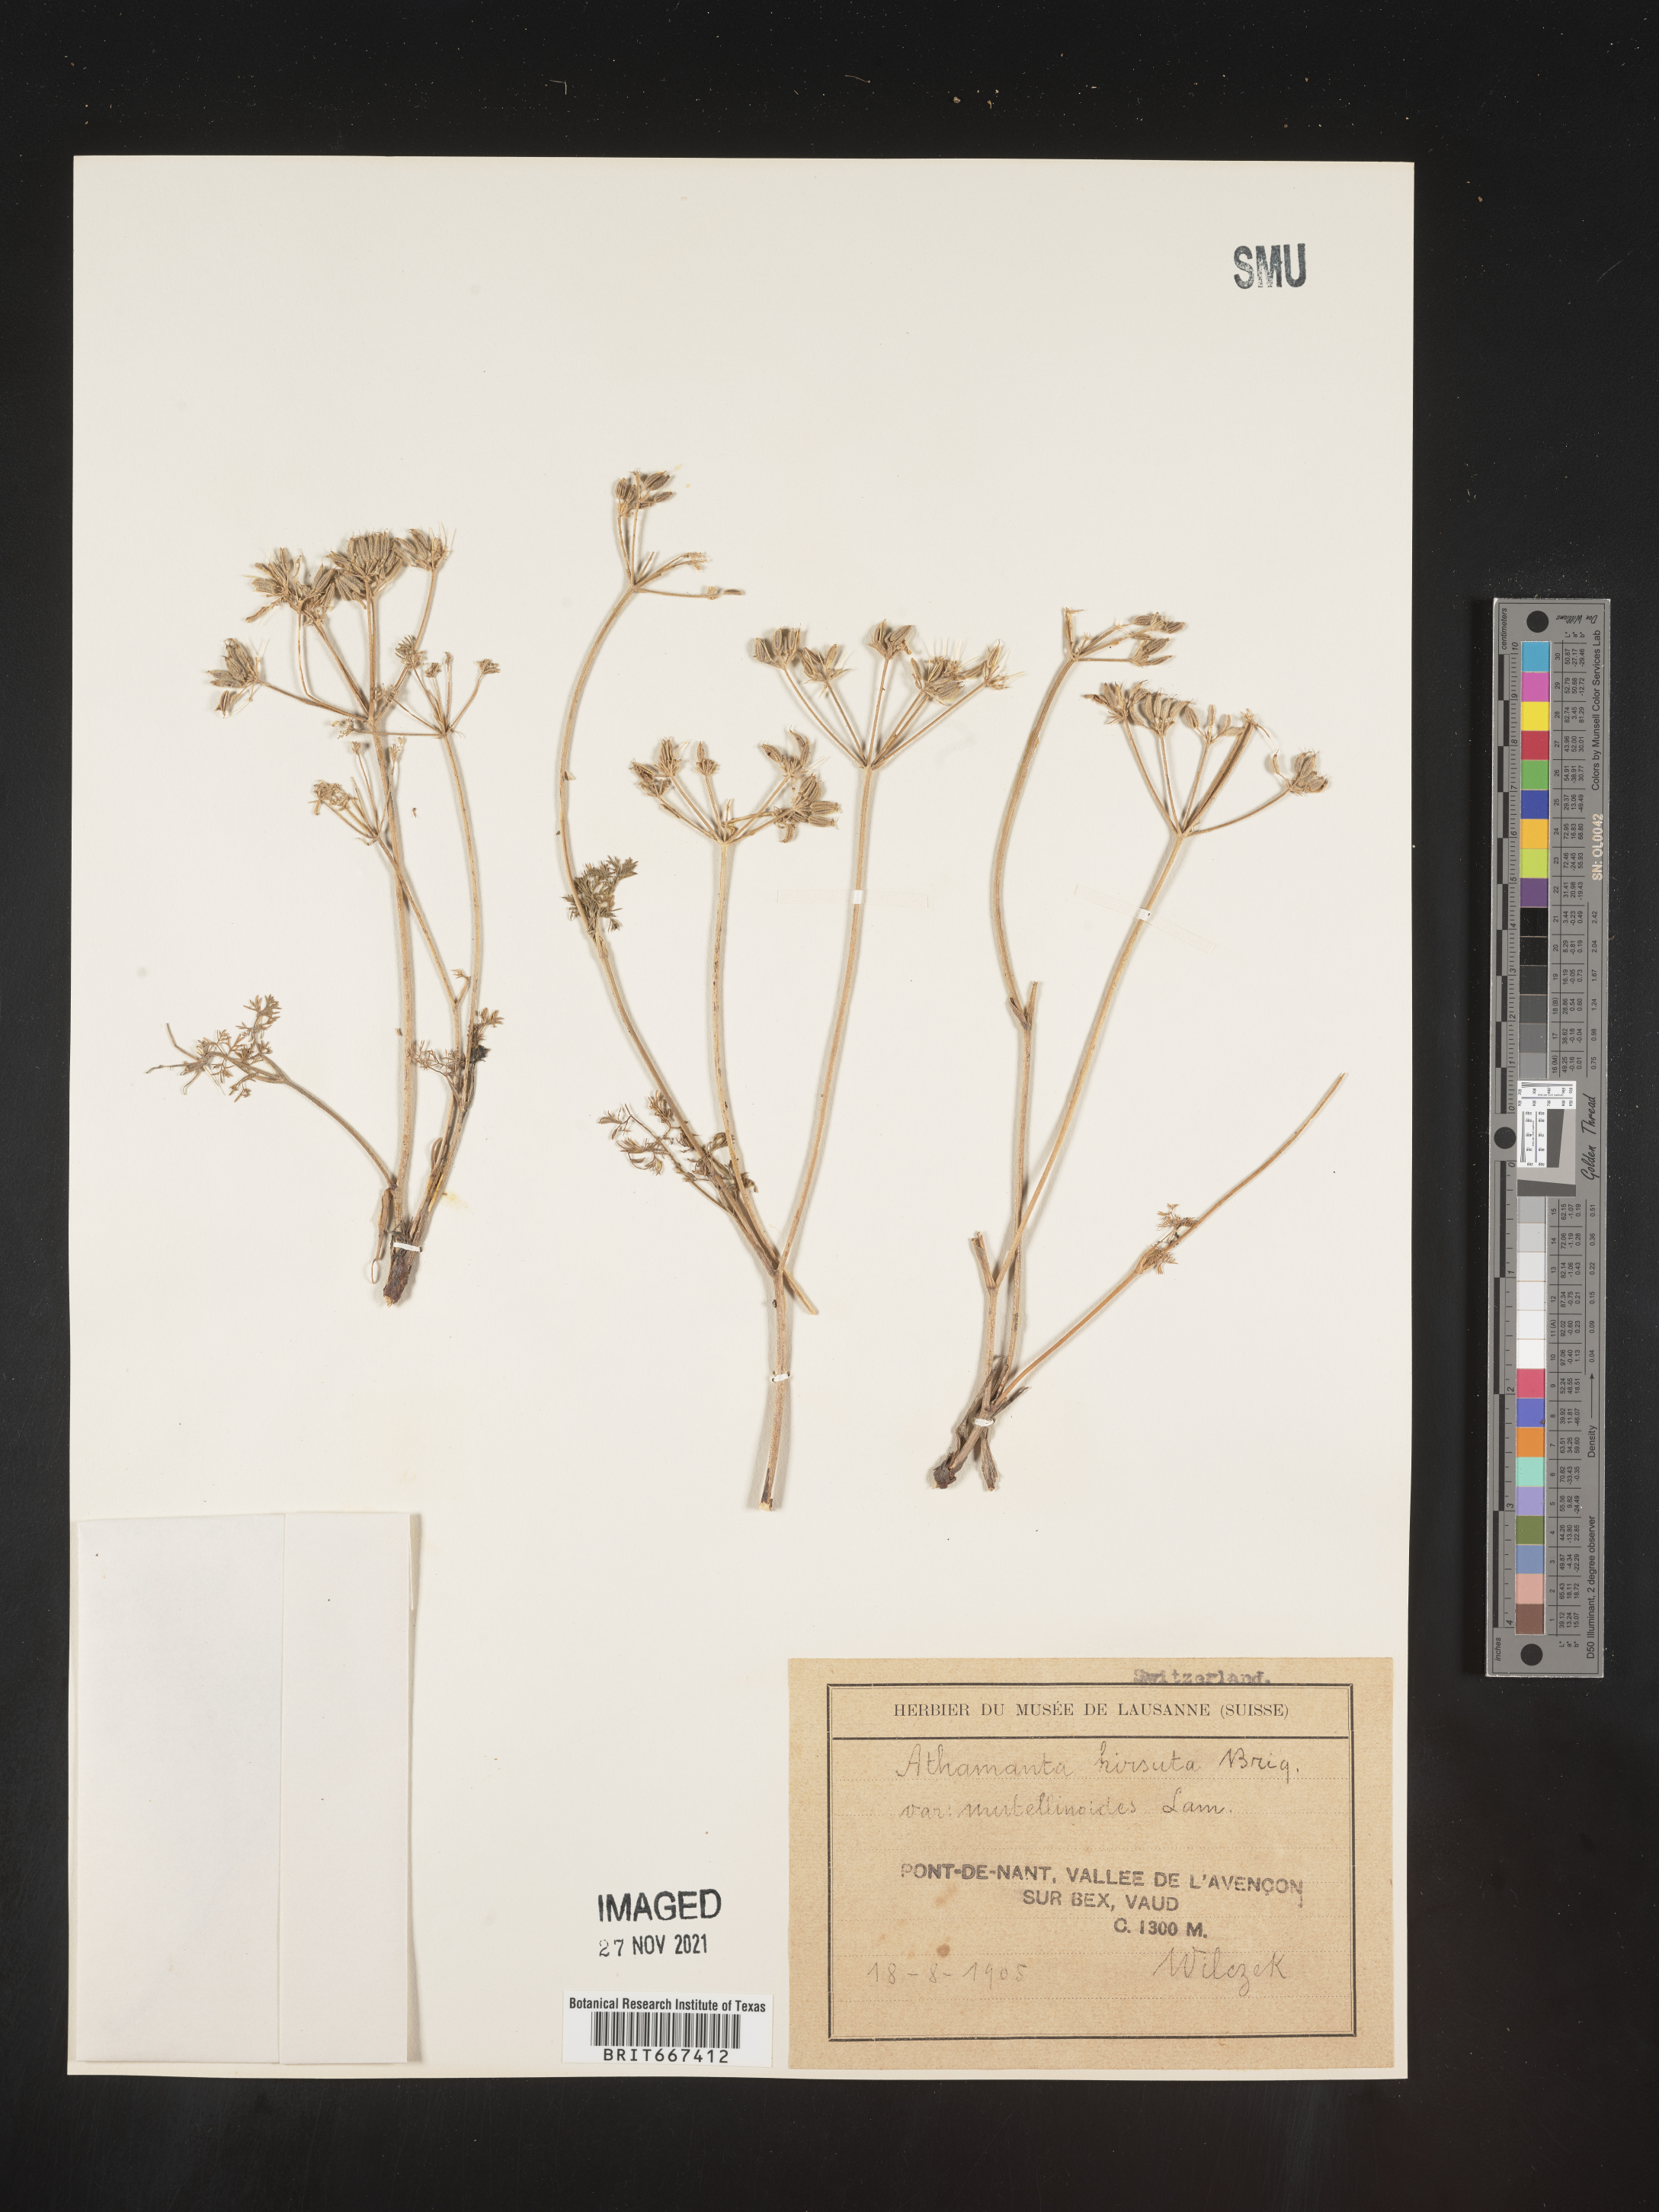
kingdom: Plantae
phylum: Tracheophyta
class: Magnoliopsida
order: Apiales
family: Apiaceae
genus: Athamanta
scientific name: Athamanta
